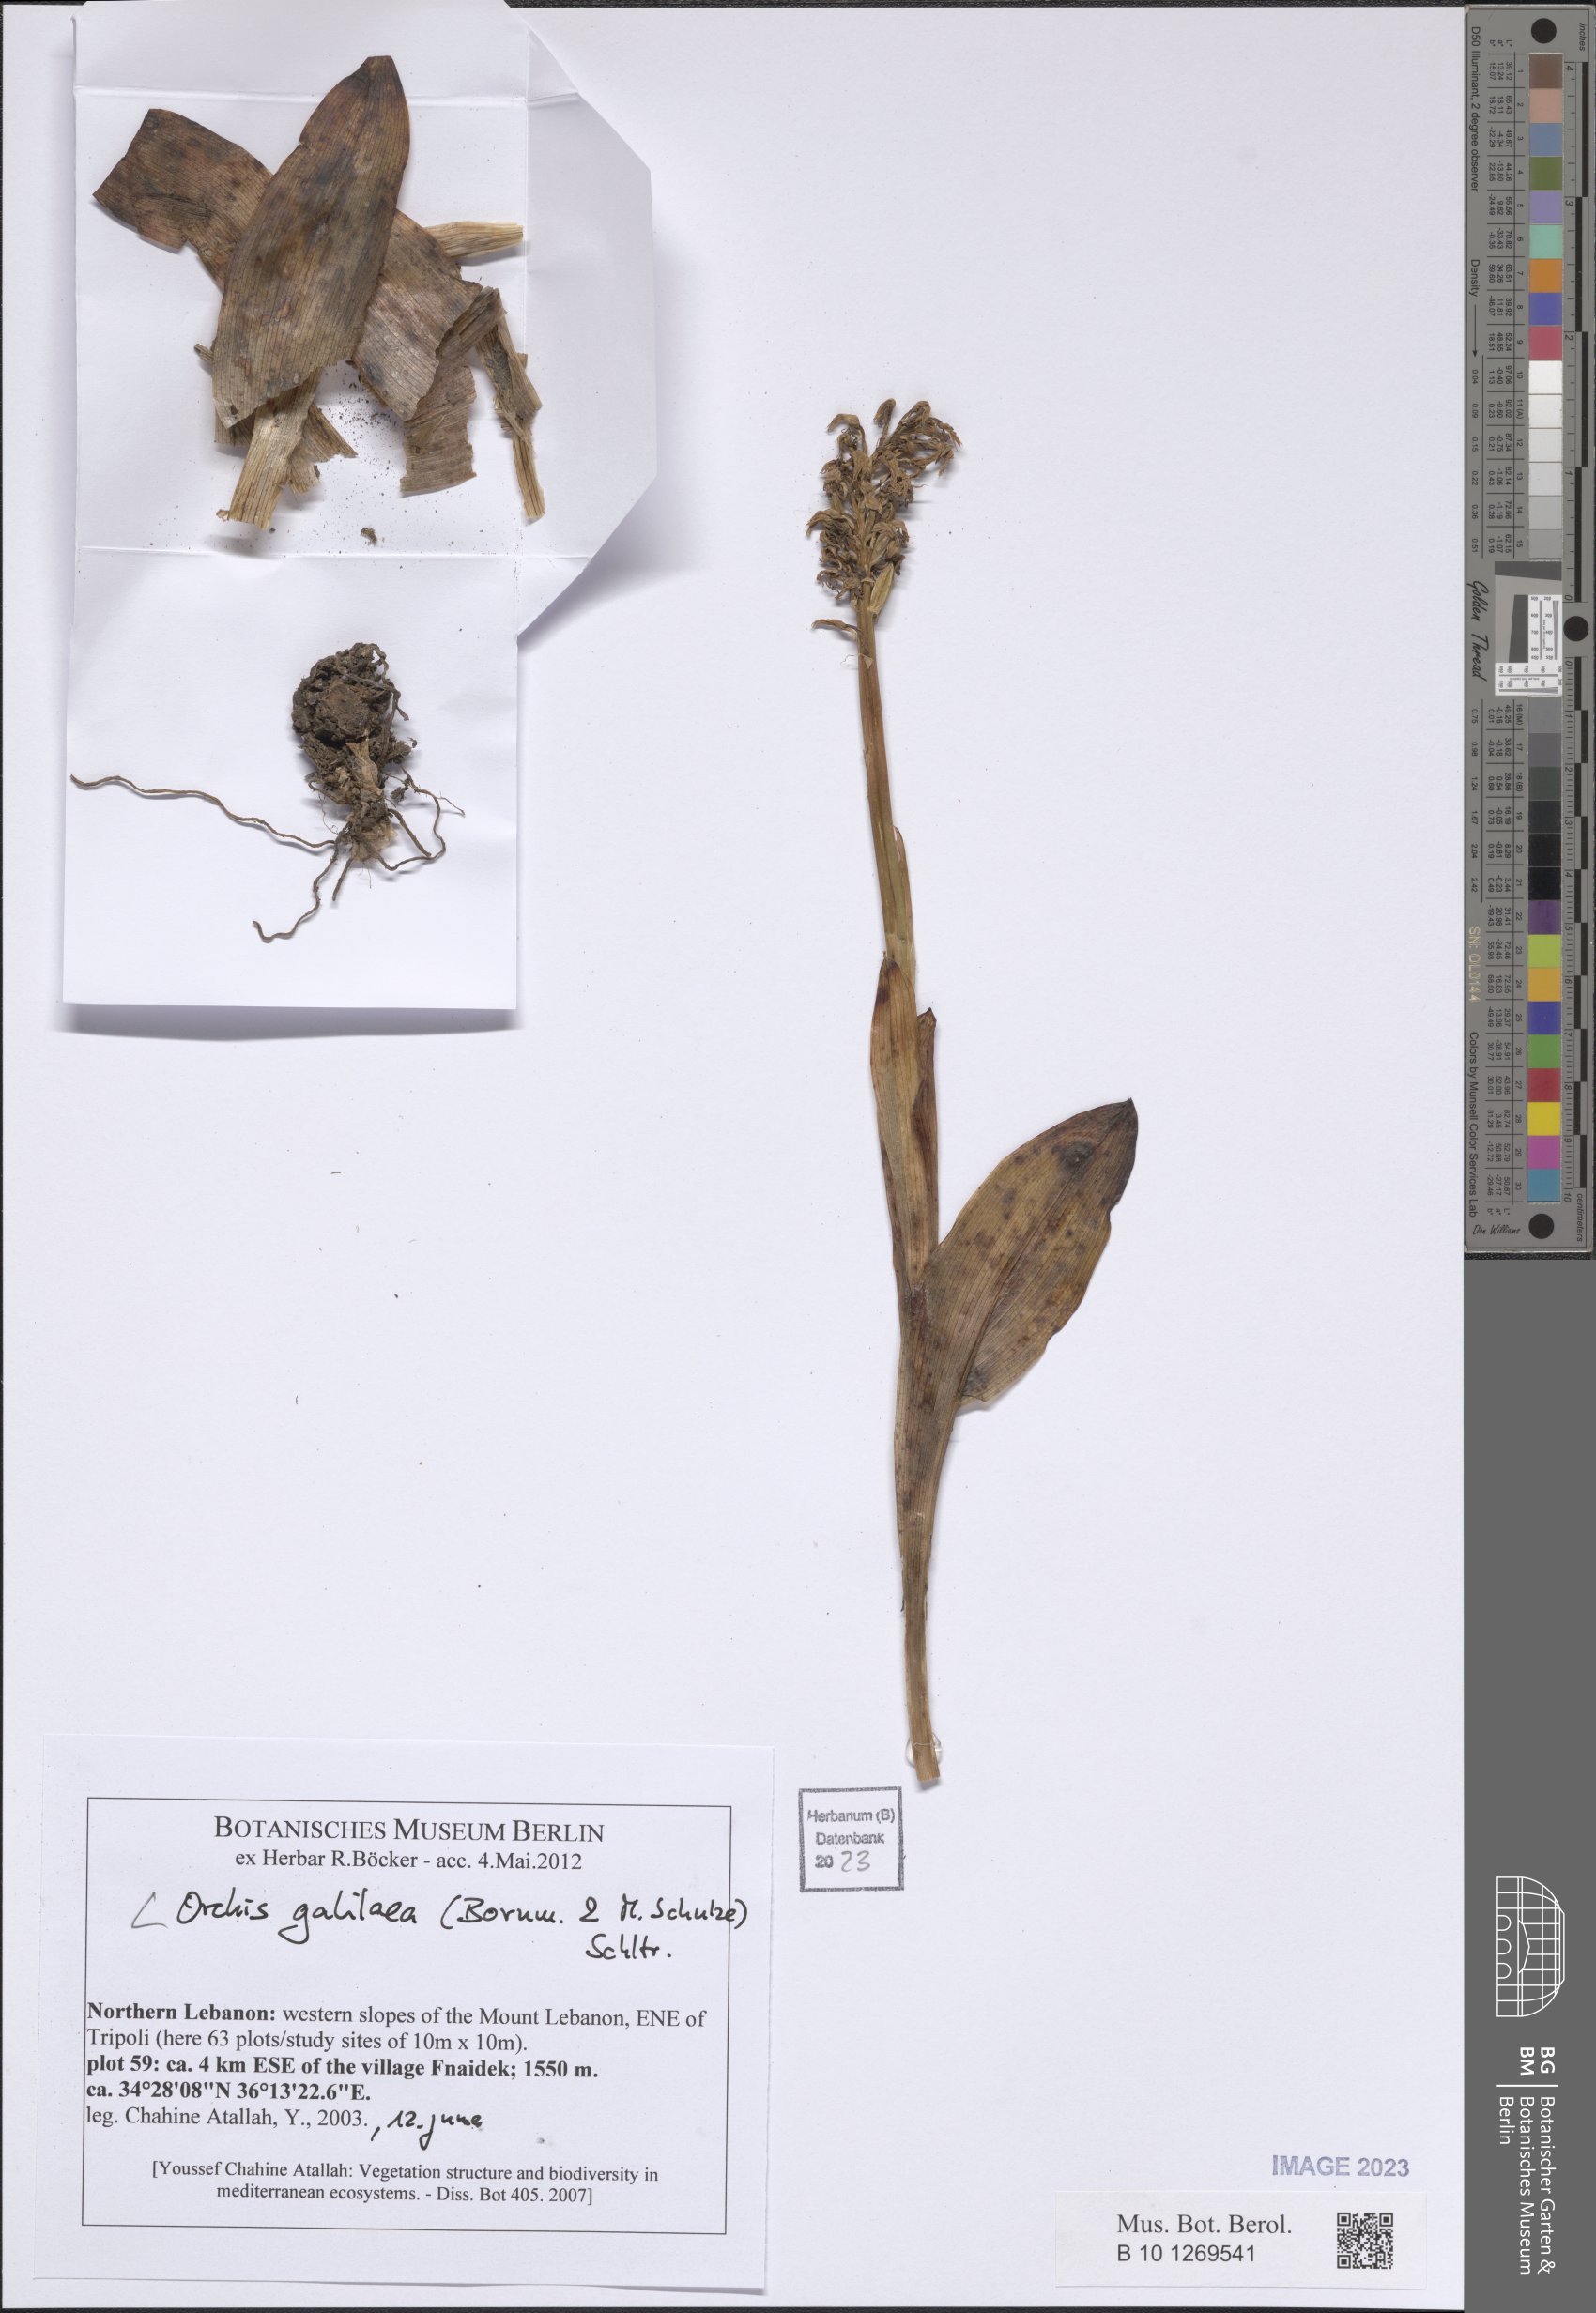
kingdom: Plantae
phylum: Tracheophyta
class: Liliopsida
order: Asparagales
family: Orchidaceae
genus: Orchis
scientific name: Orchis galilaea
